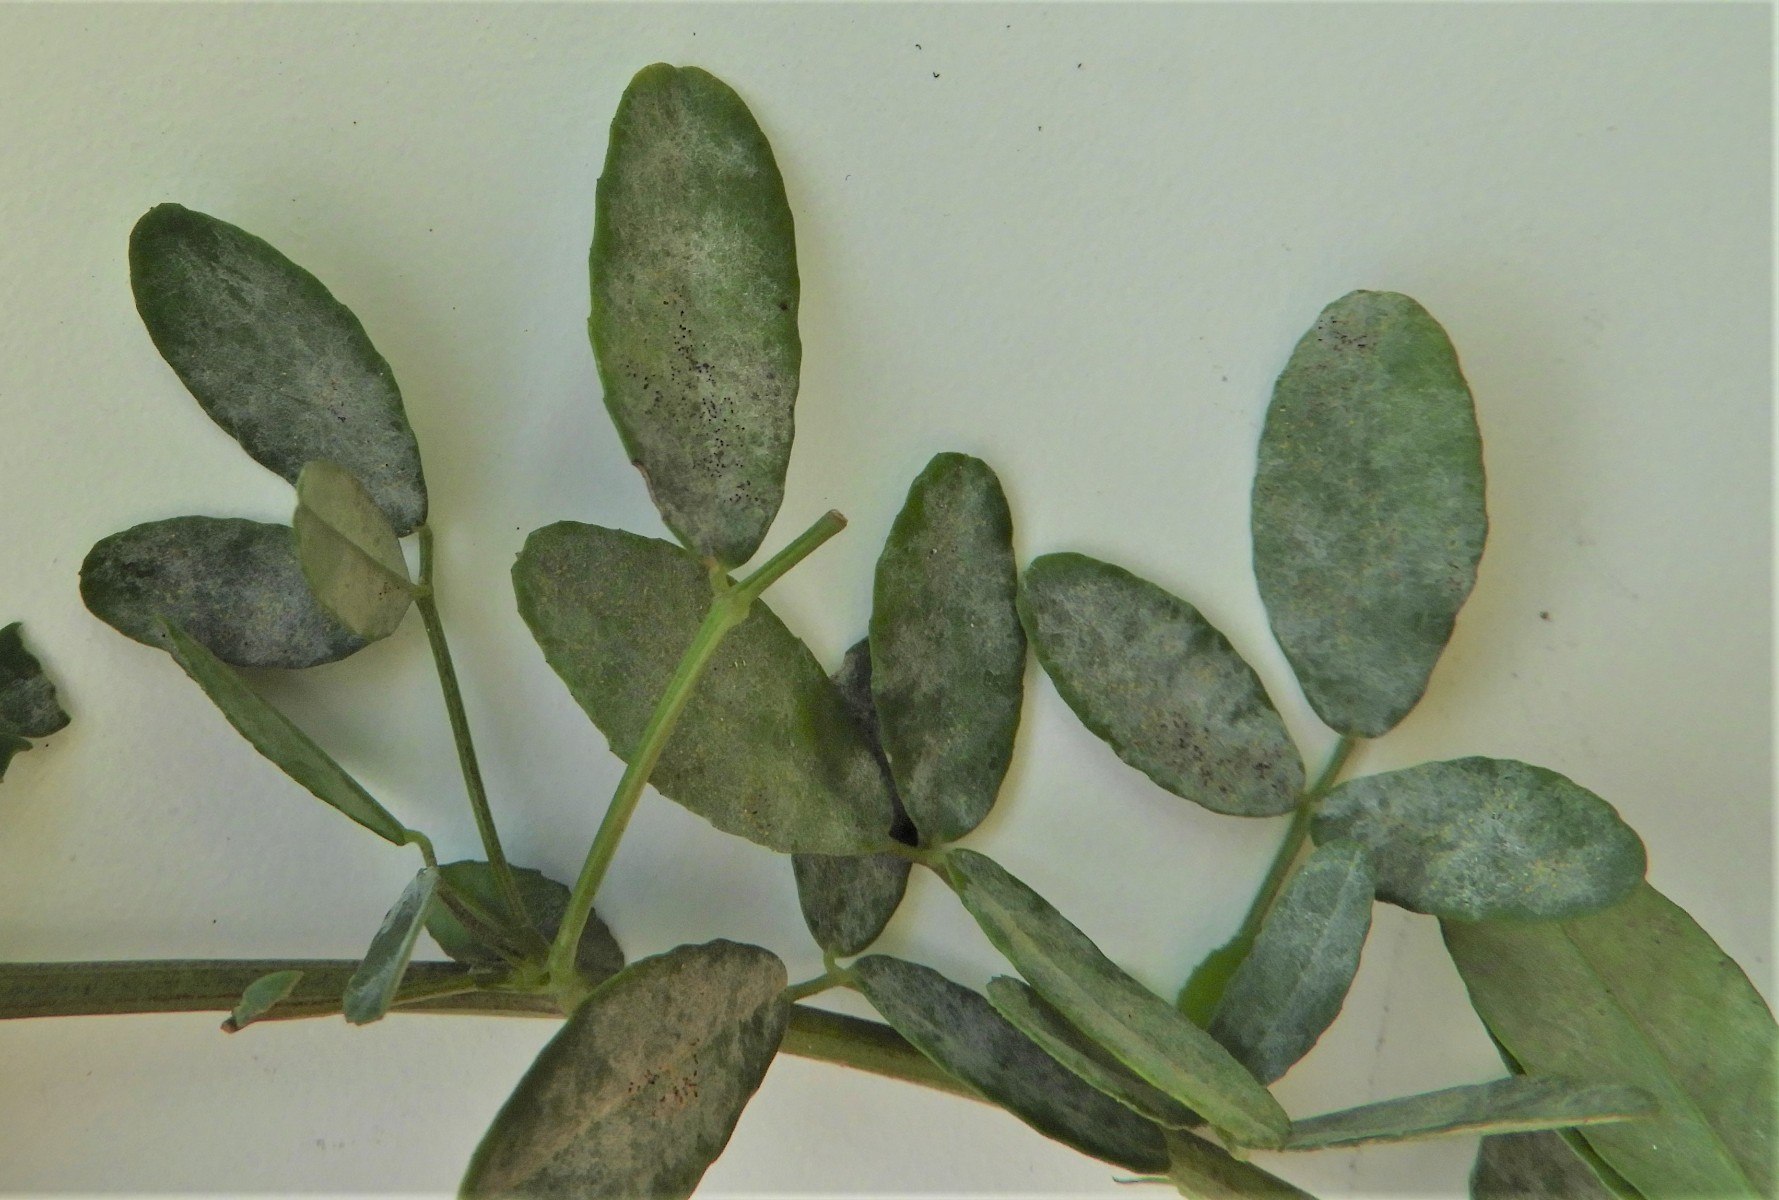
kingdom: Fungi
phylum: Ascomycota
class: Leotiomycetes
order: Helotiales
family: Erysiphaceae
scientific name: Erysiphaceae
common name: meldugfamilien
